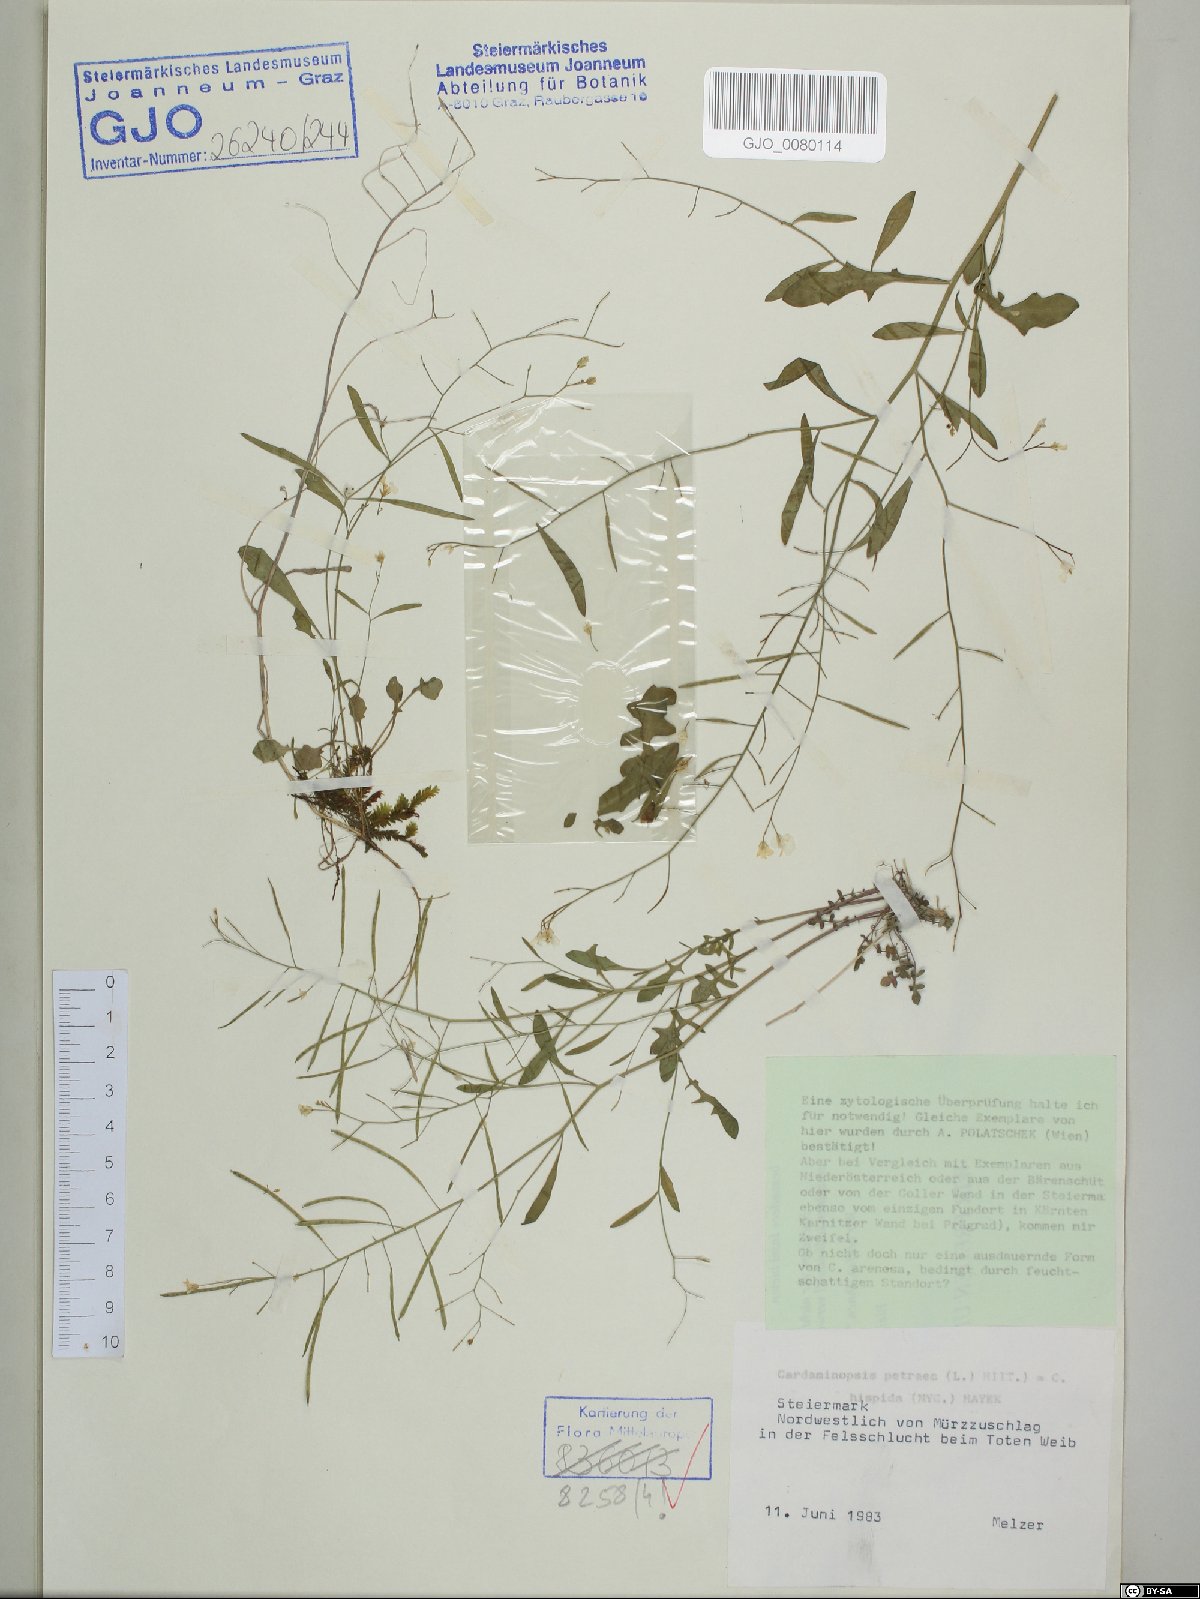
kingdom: Plantae
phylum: Tracheophyta
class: Magnoliopsida
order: Brassicales
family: Brassicaceae
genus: Arabidopsis
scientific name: Arabidopsis lyrata
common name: Lyrate rockcress
